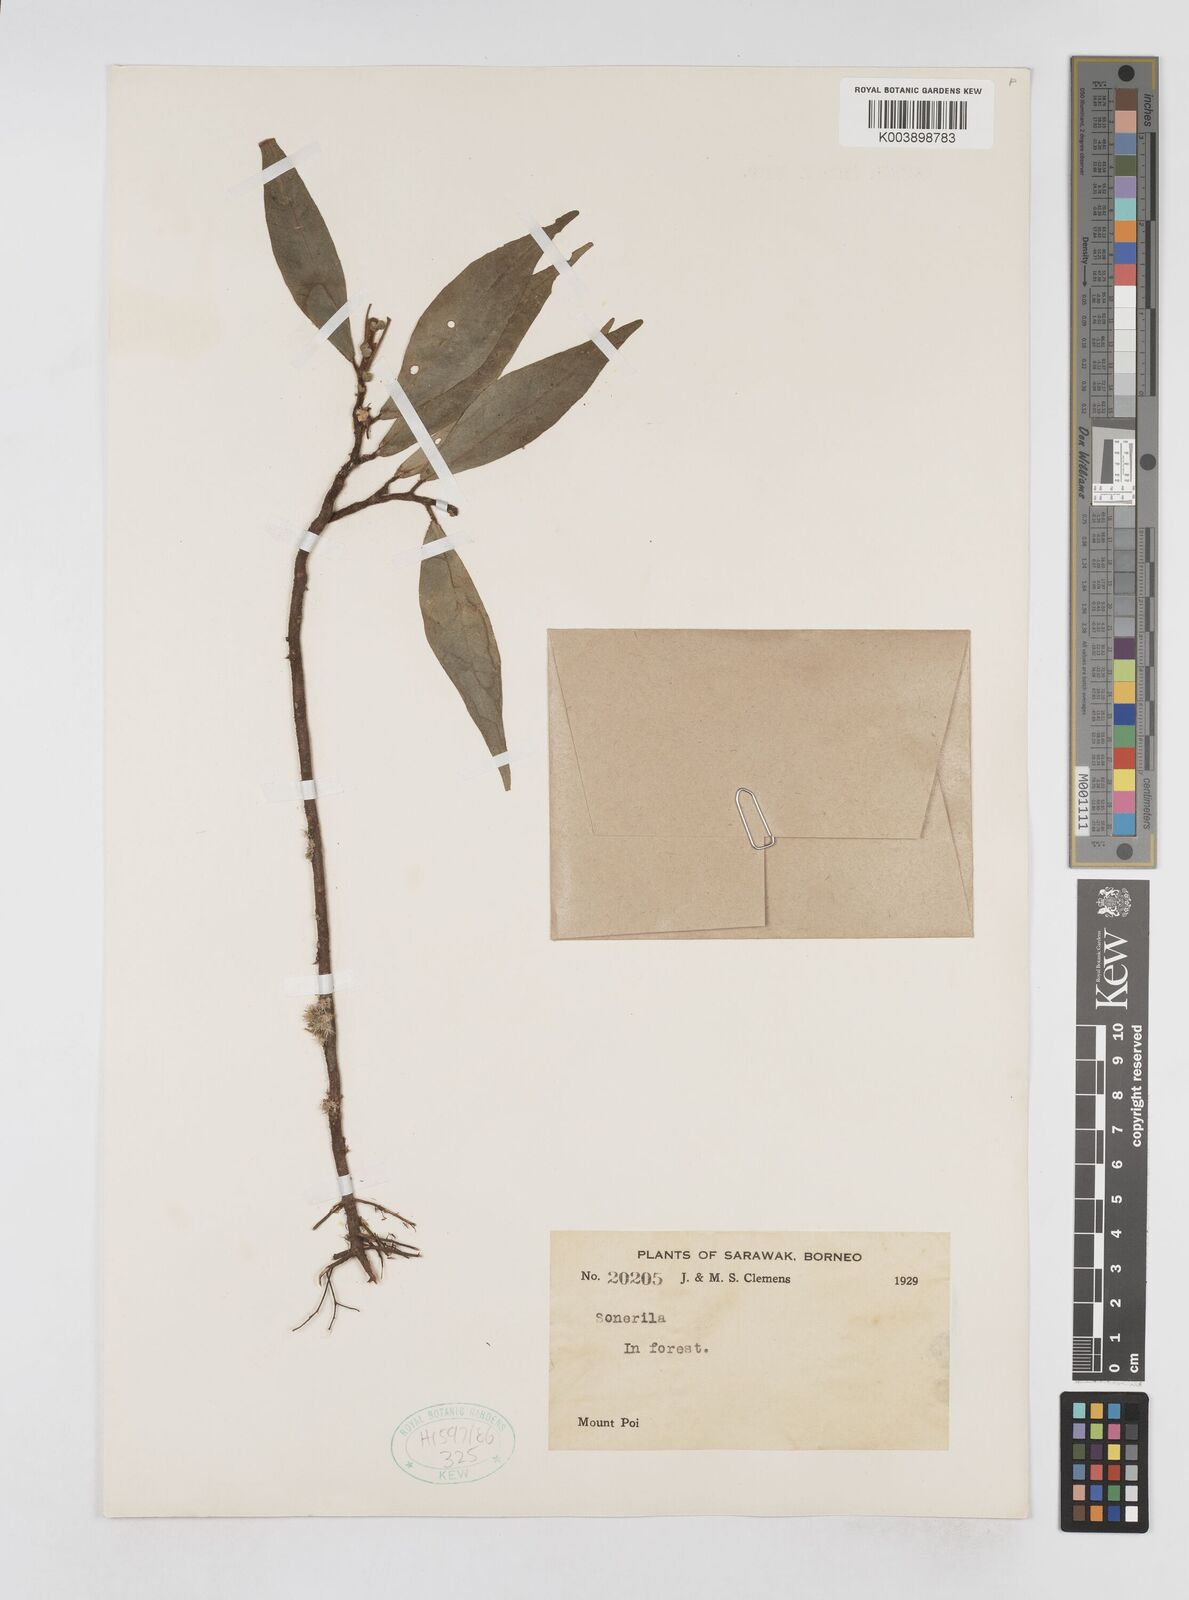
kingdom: Plantae
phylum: Tracheophyta
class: Magnoliopsida
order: Myrtales
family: Melastomataceae
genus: Sonerila
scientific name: Sonerila
